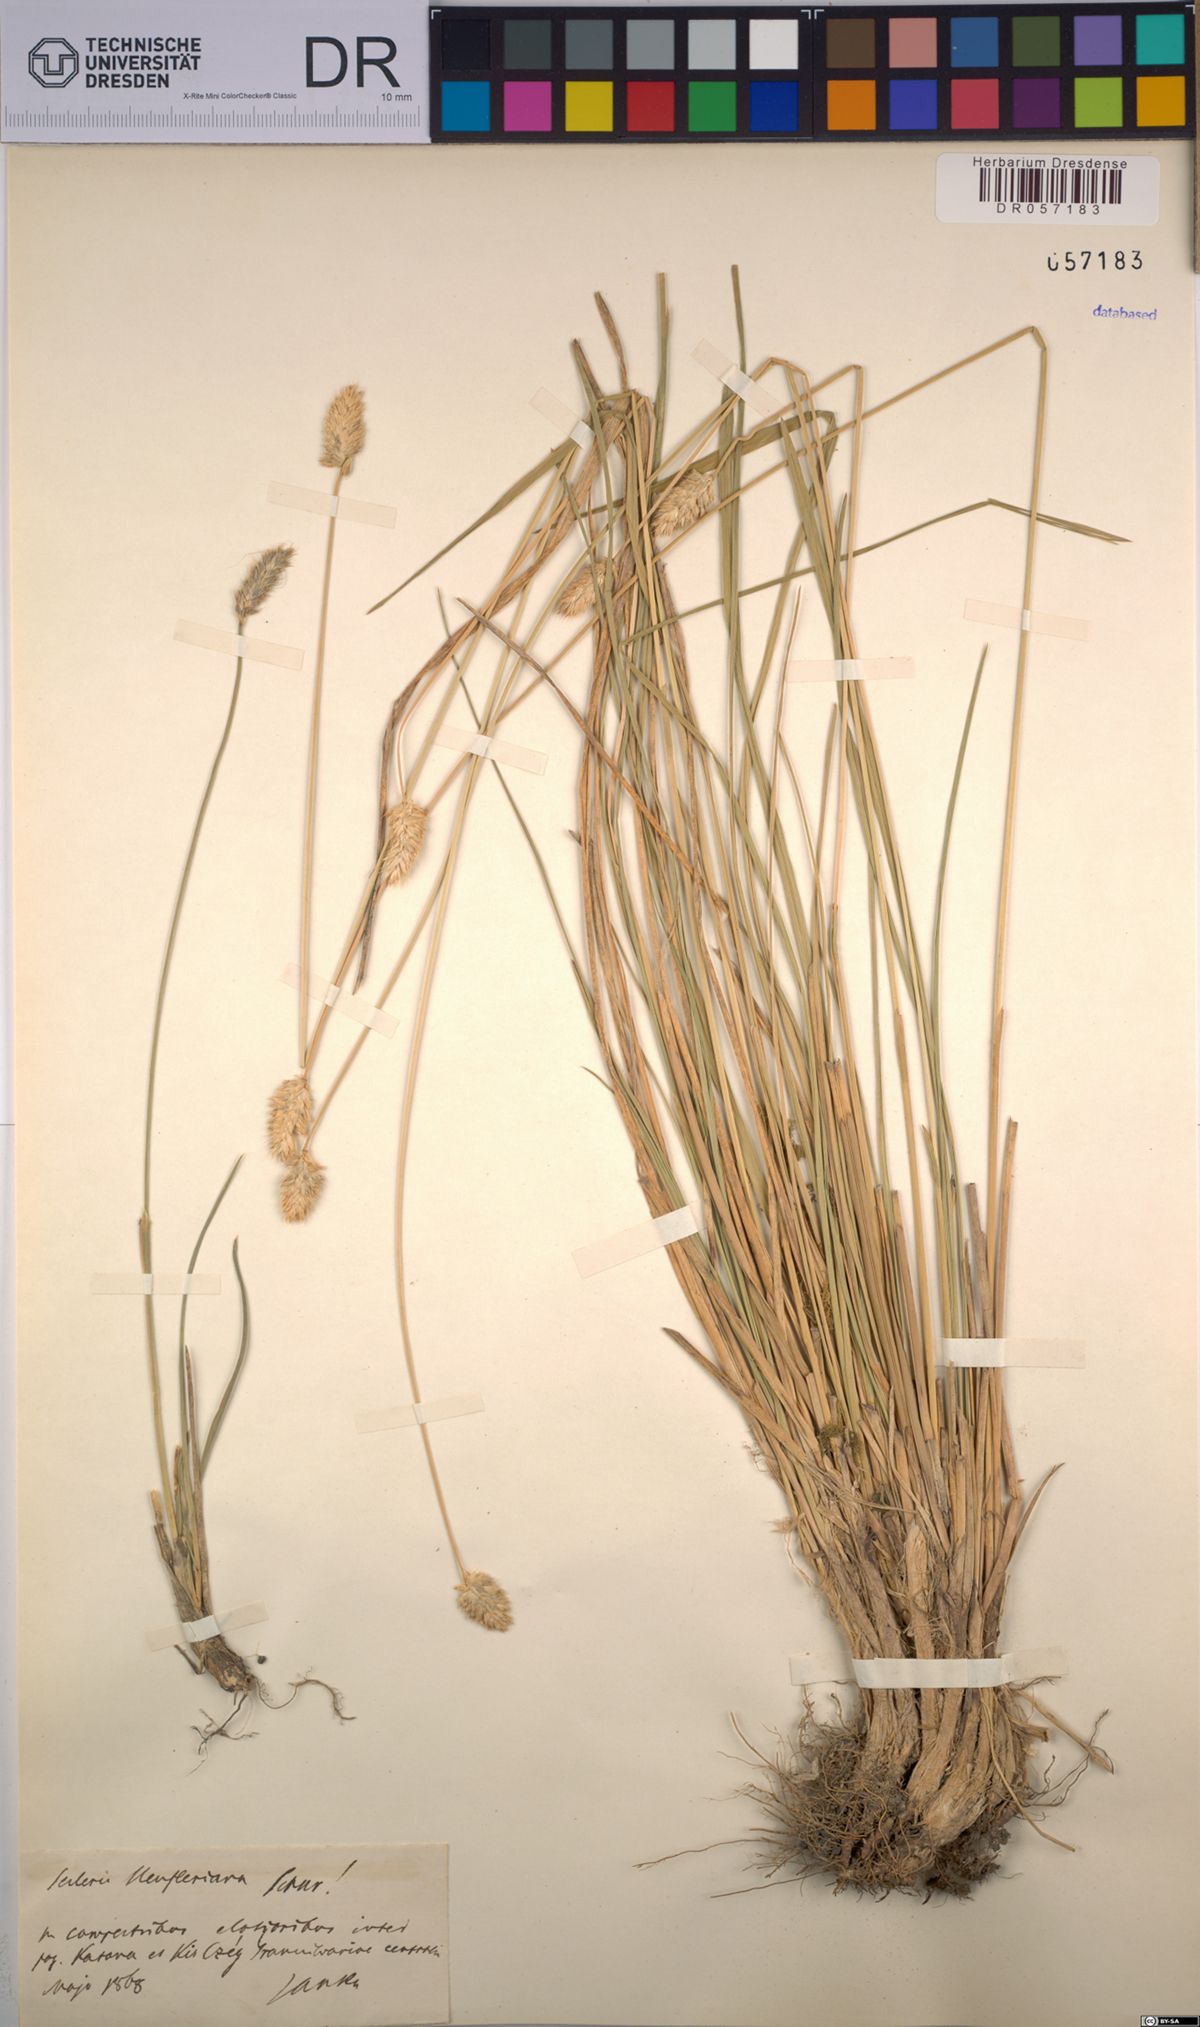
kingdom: Plantae
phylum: Tracheophyta
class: Liliopsida
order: Poales
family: Poaceae
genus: Sesleria
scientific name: Sesleria heufleriana
